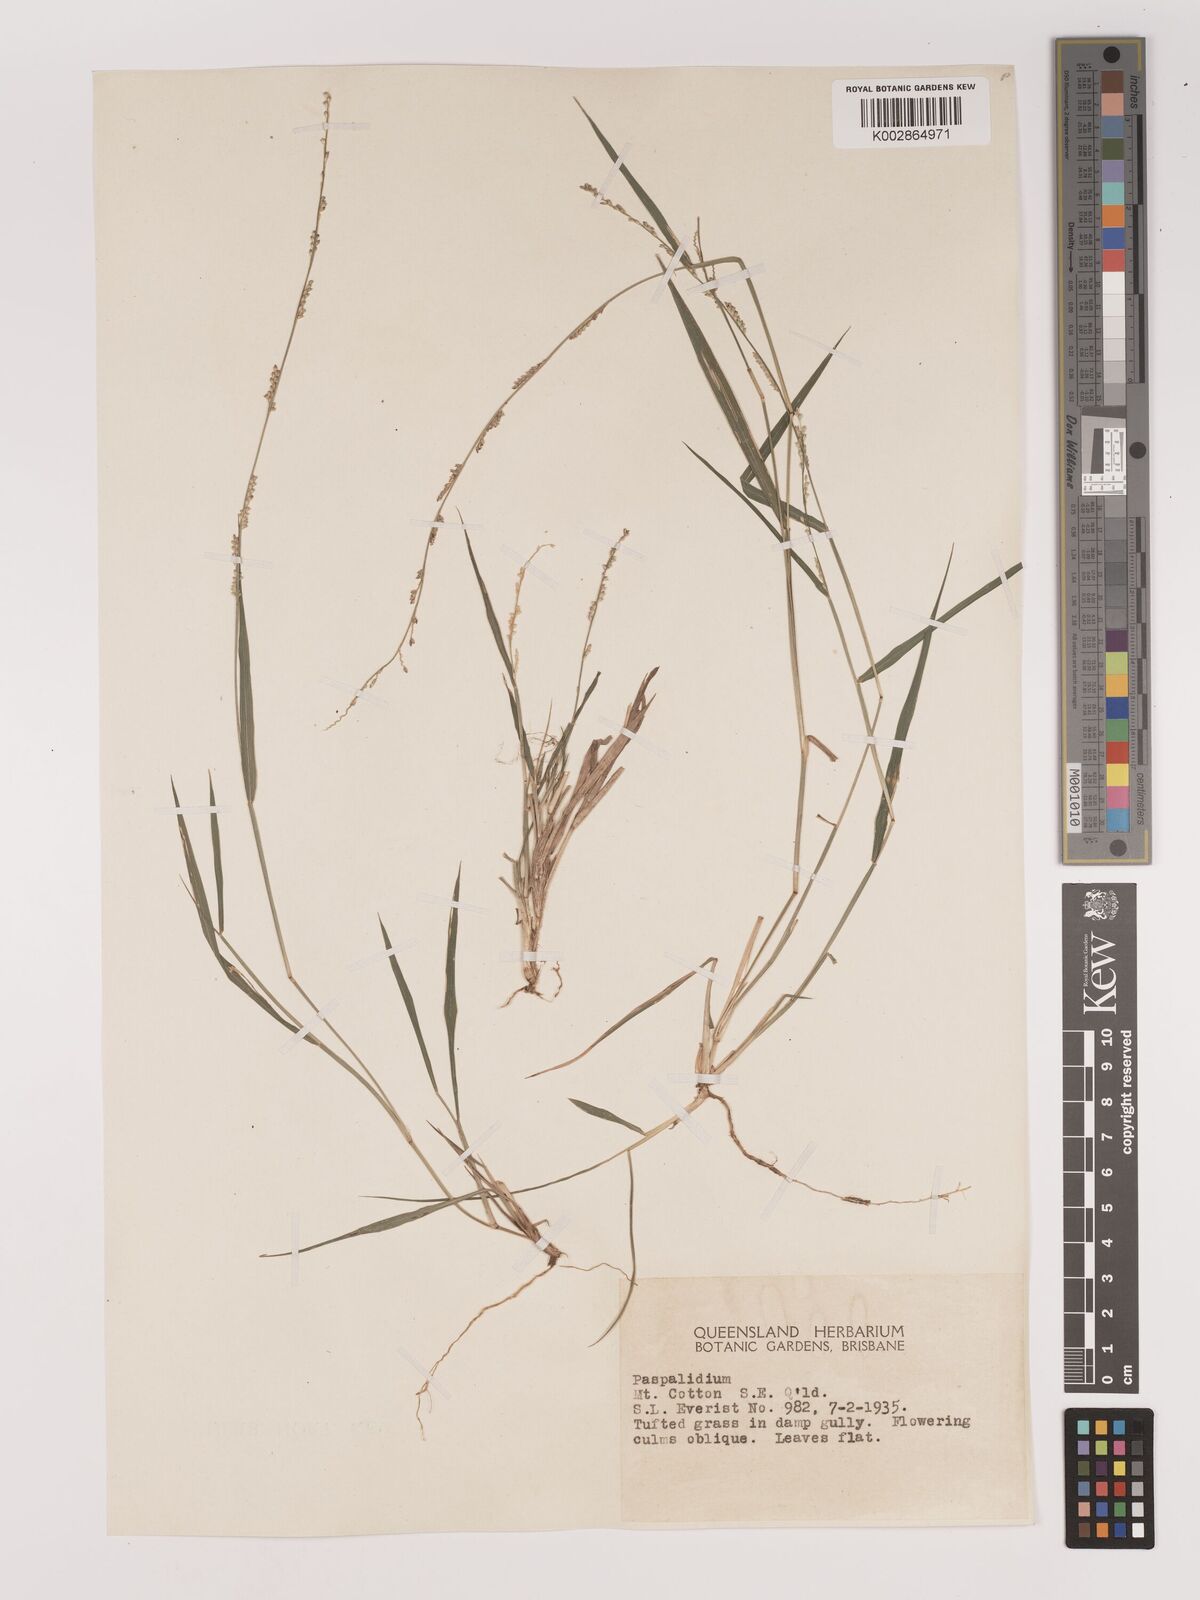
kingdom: Plantae
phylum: Tracheophyta
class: Liliopsida
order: Poales
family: Poaceae
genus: Setaria
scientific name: Setaria
